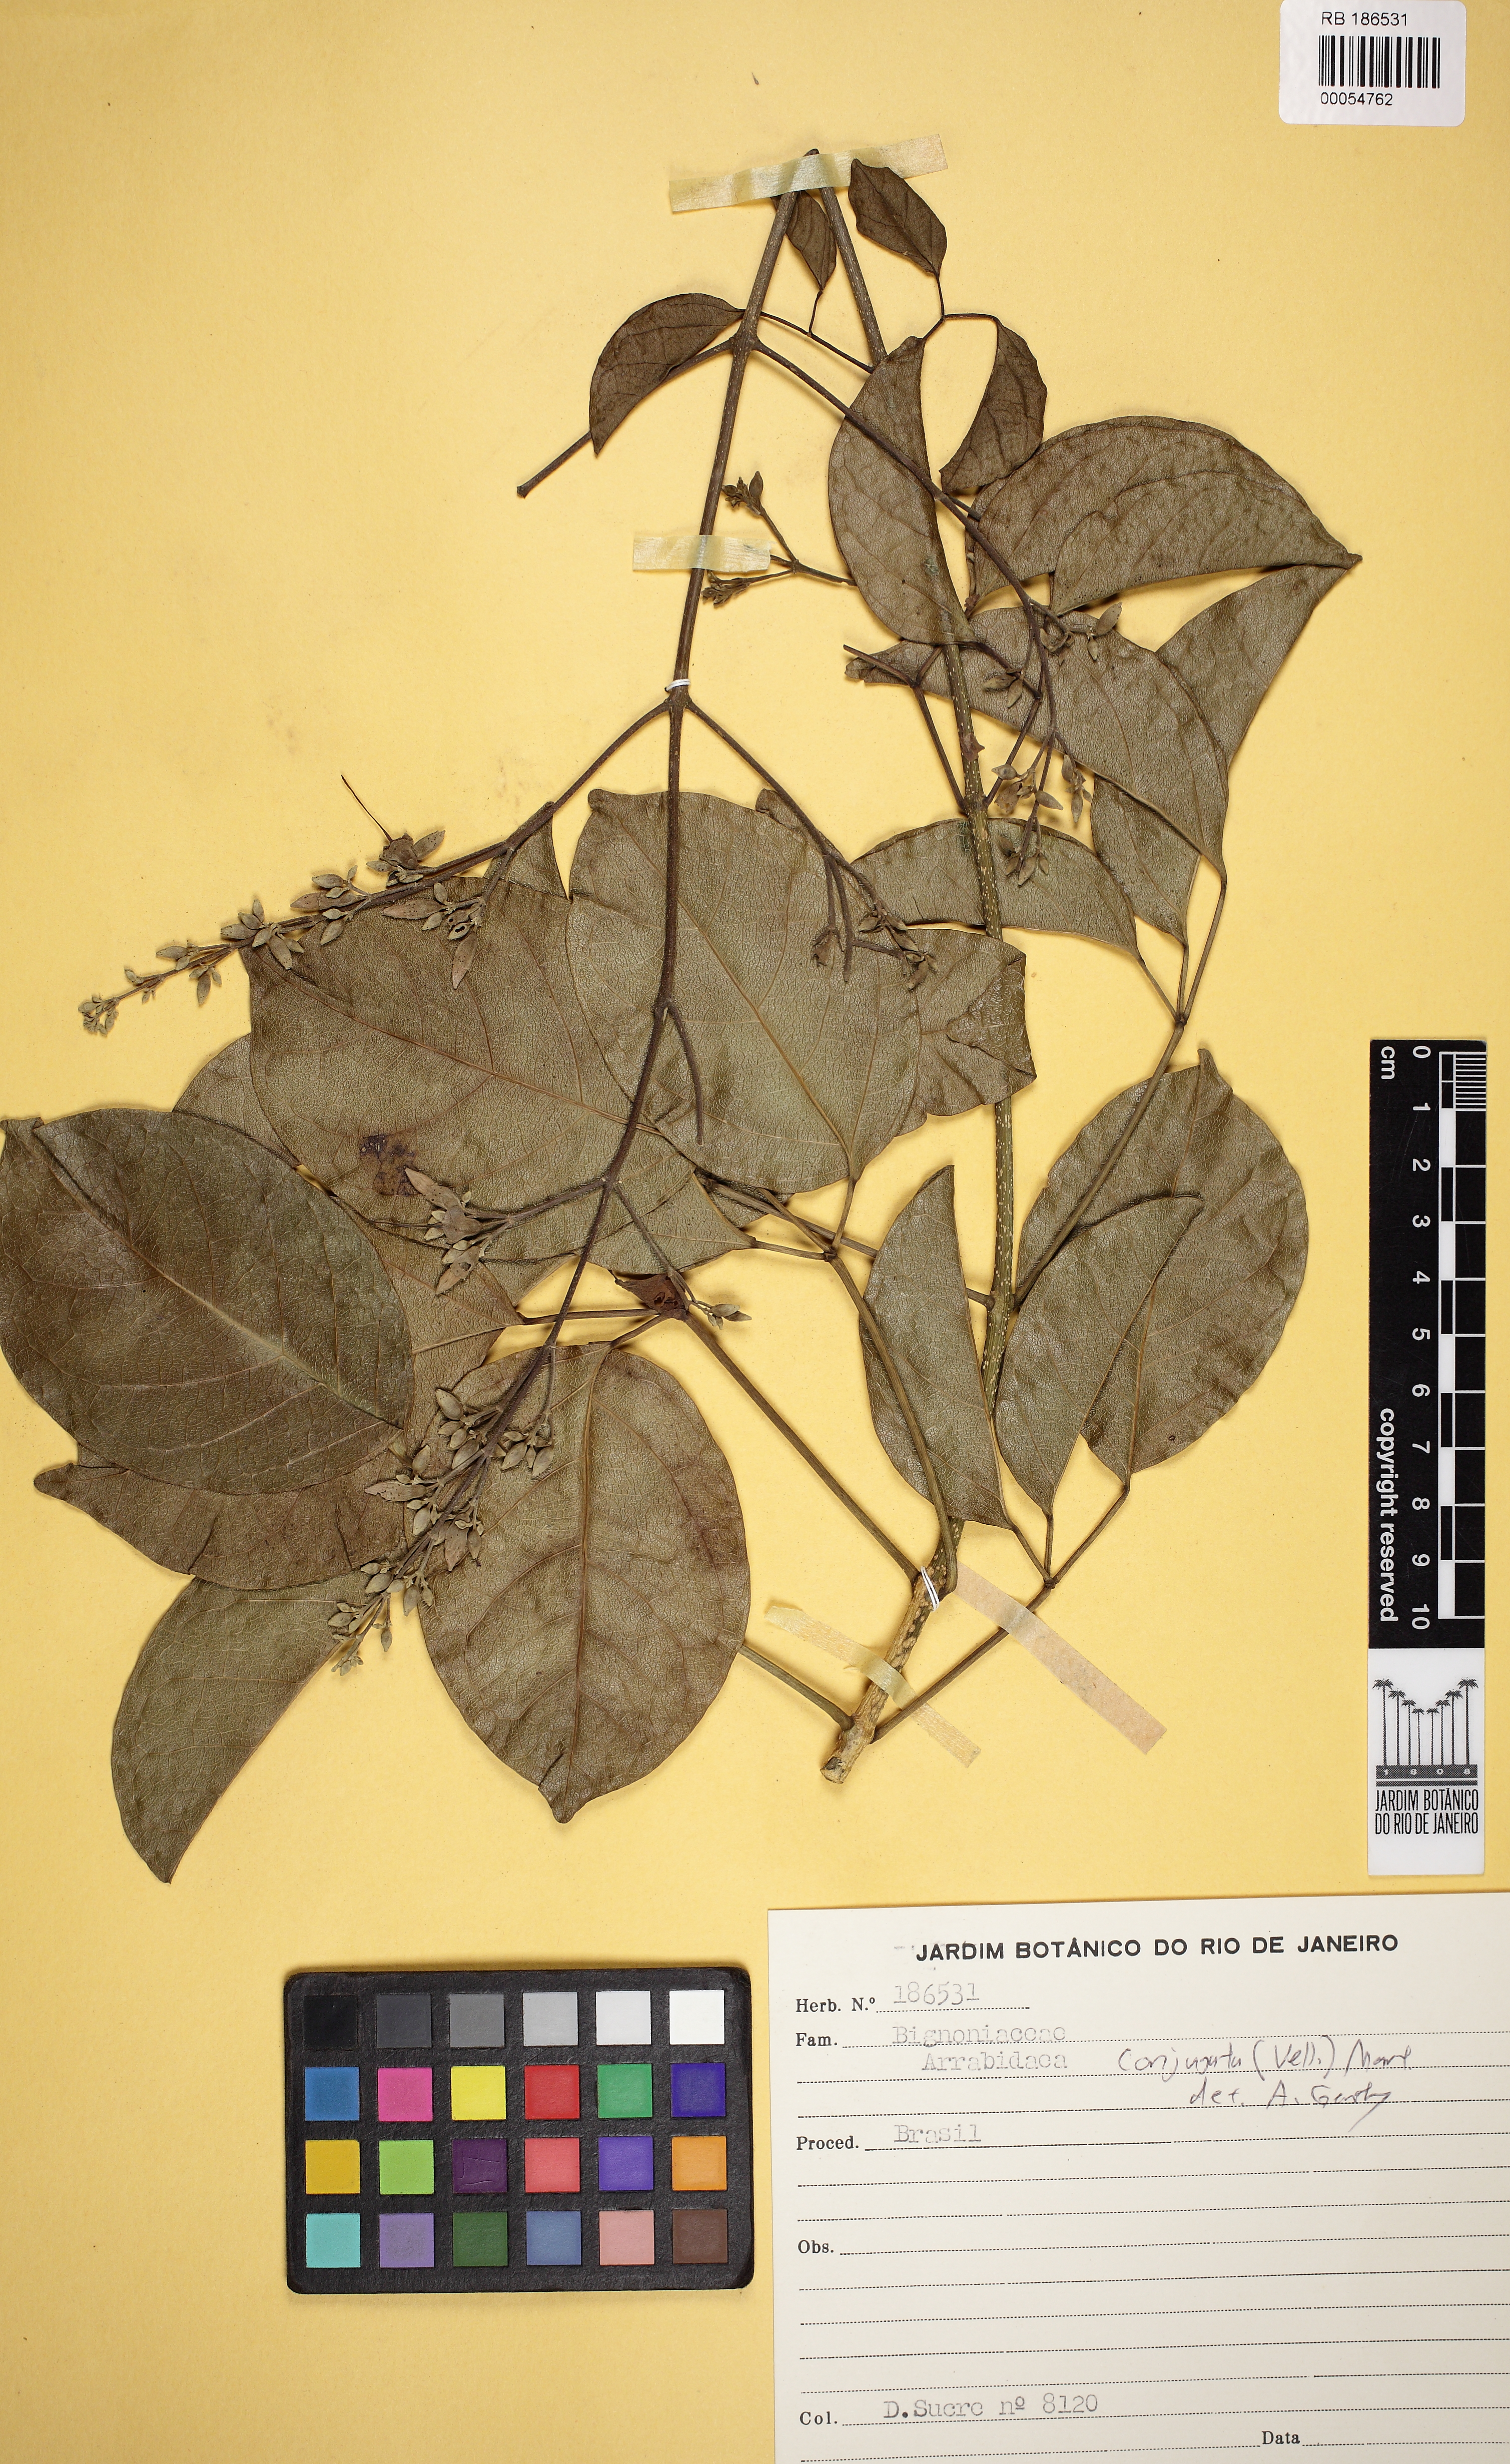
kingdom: Plantae
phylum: Tracheophyta
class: Magnoliopsida
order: Lamiales
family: Bignoniaceae
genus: Fridericia
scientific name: Fridericia conjugata
